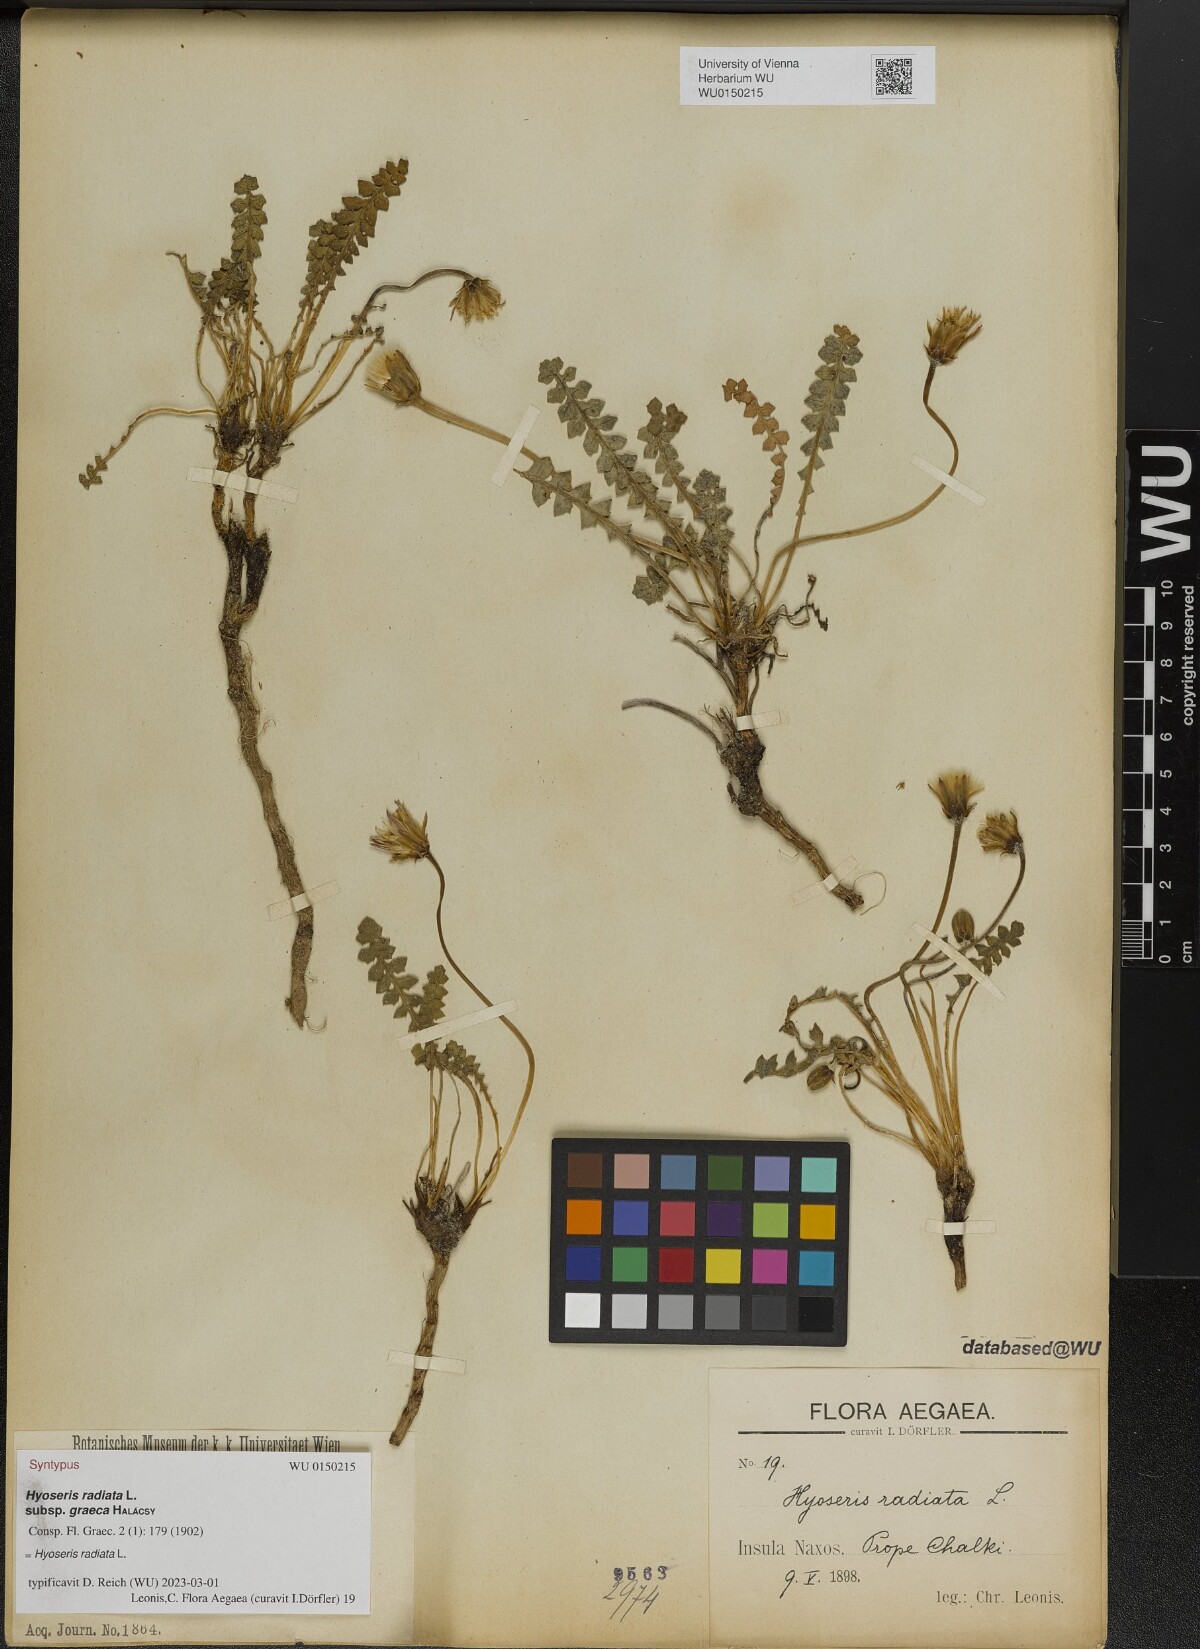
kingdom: Plantae
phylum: Tracheophyta
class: Magnoliopsida
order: Asterales
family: Asteraceae
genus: Hyoseris
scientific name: Hyoseris lucida
